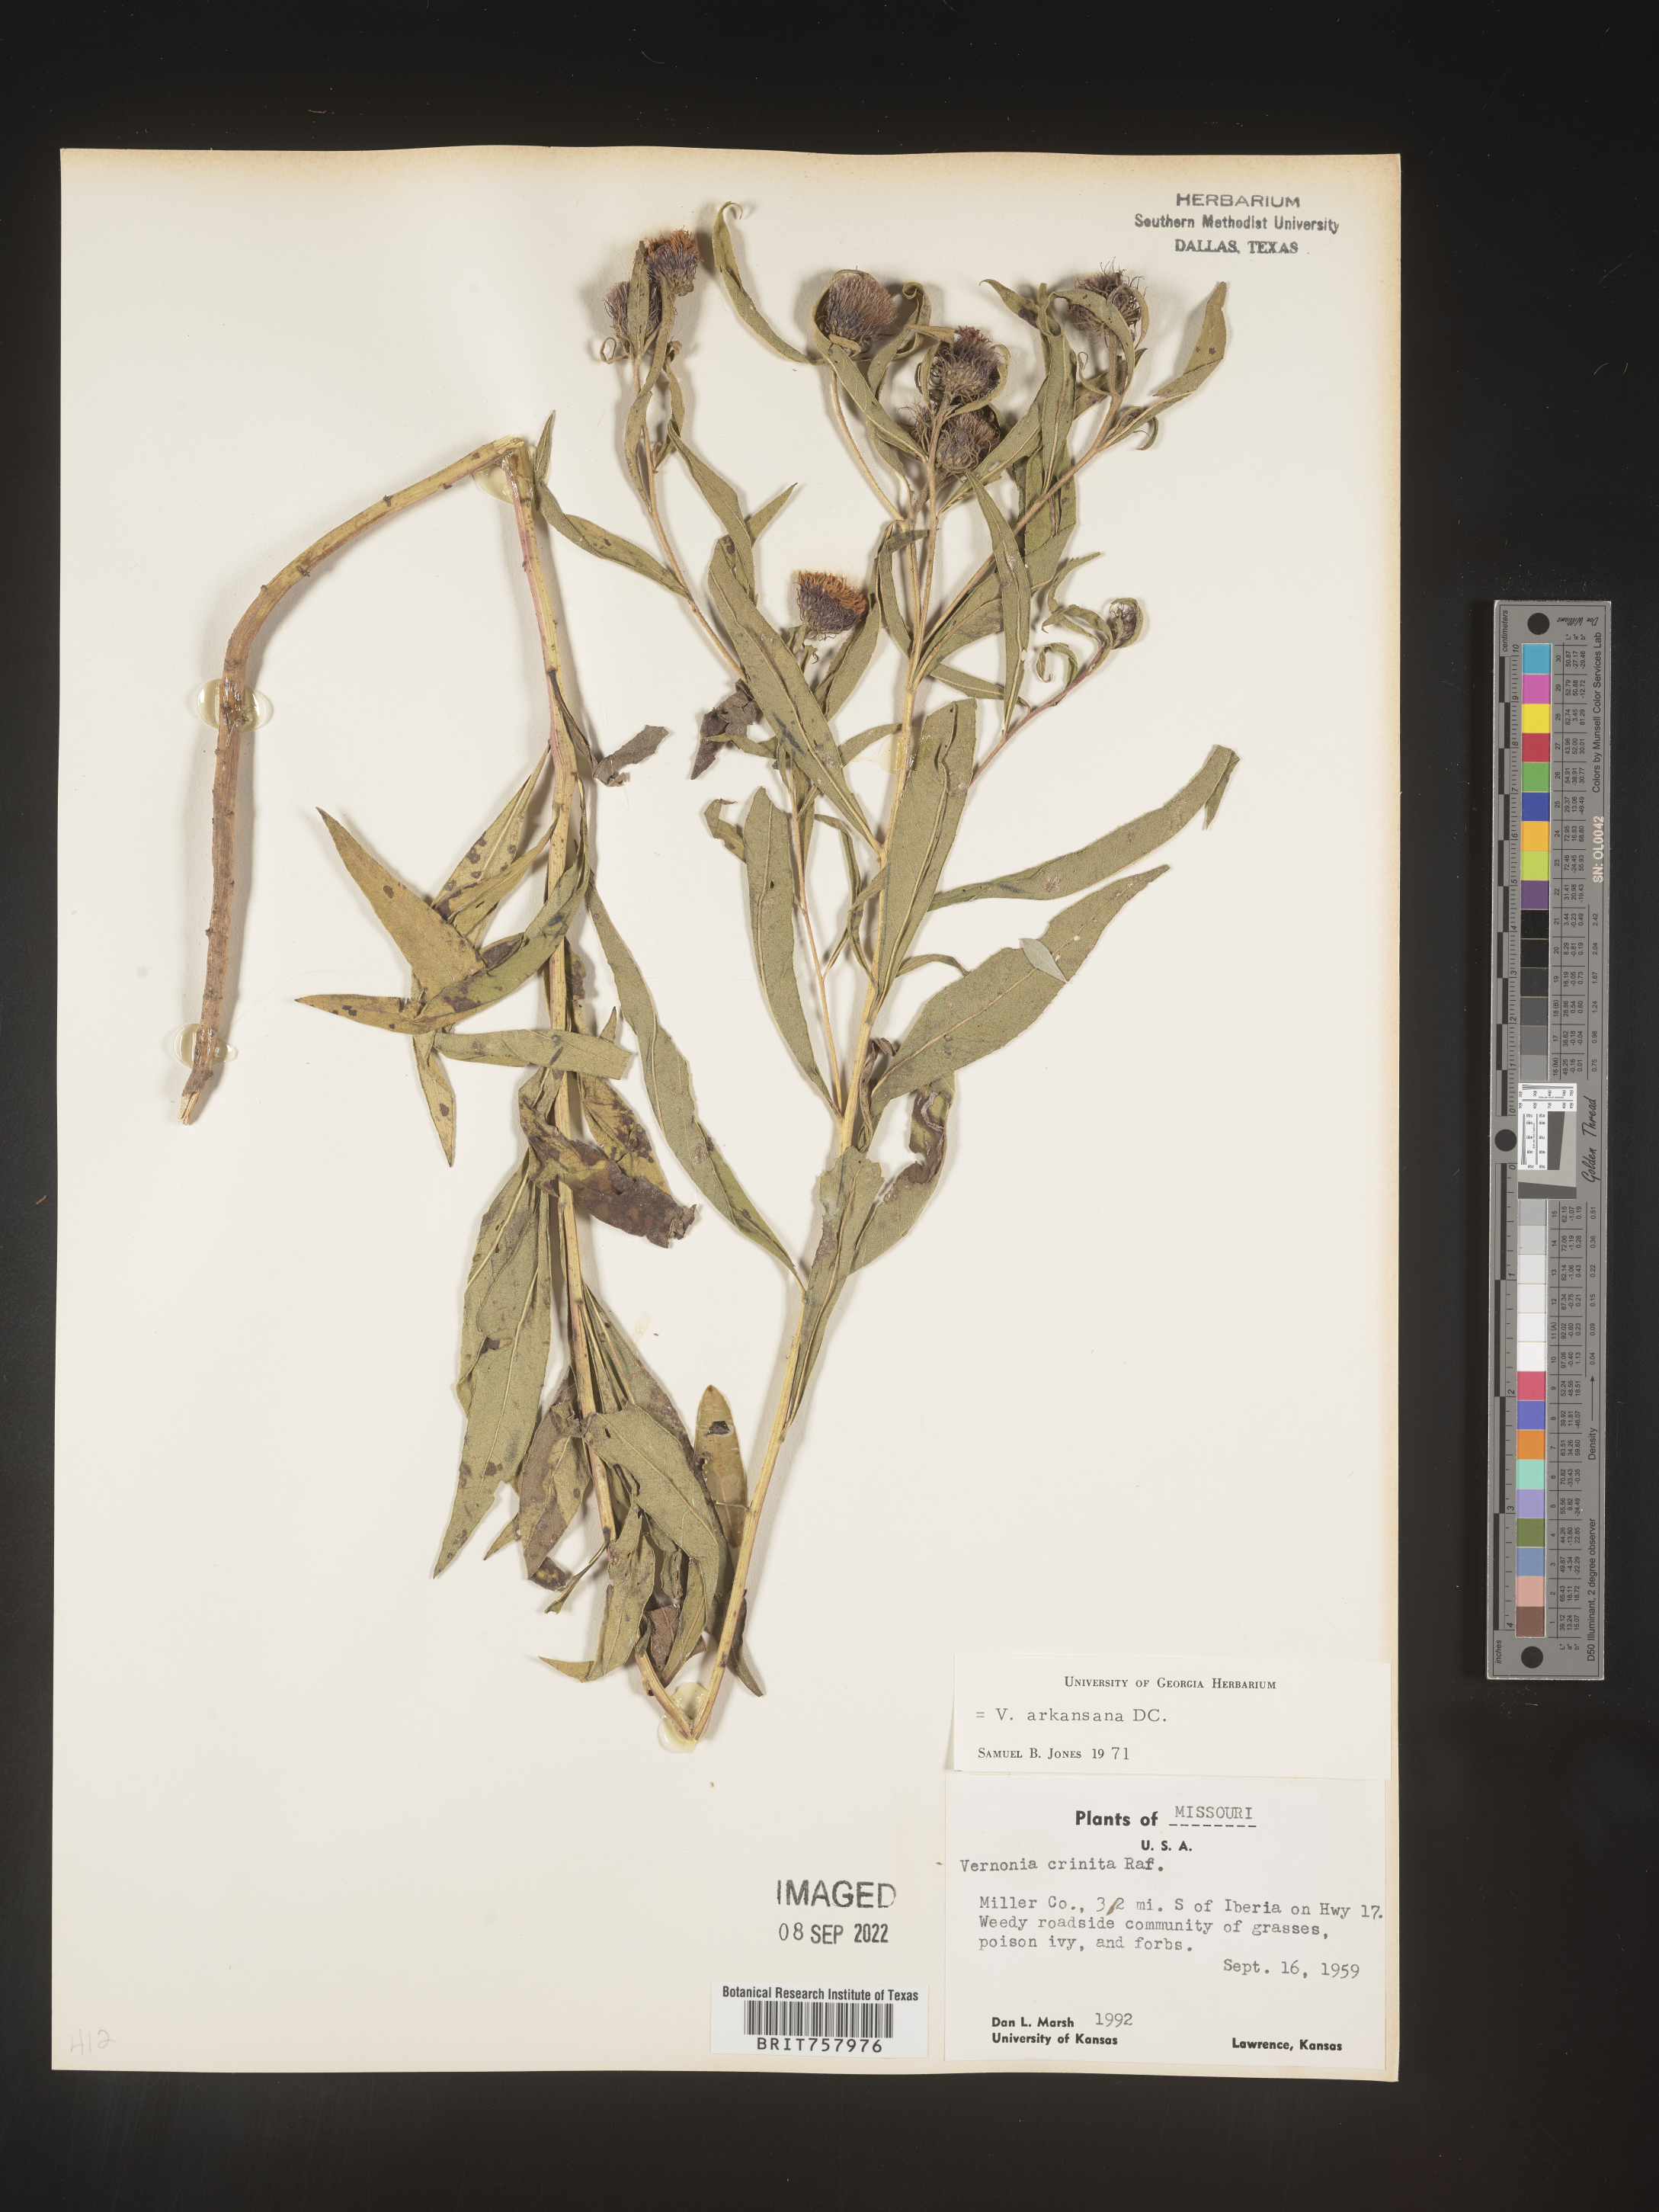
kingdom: Plantae
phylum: Tracheophyta
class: Magnoliopsida
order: Asterales
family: Asteraceae
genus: Vernonia
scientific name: Vernonia arkansana
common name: Ozark ironweed
